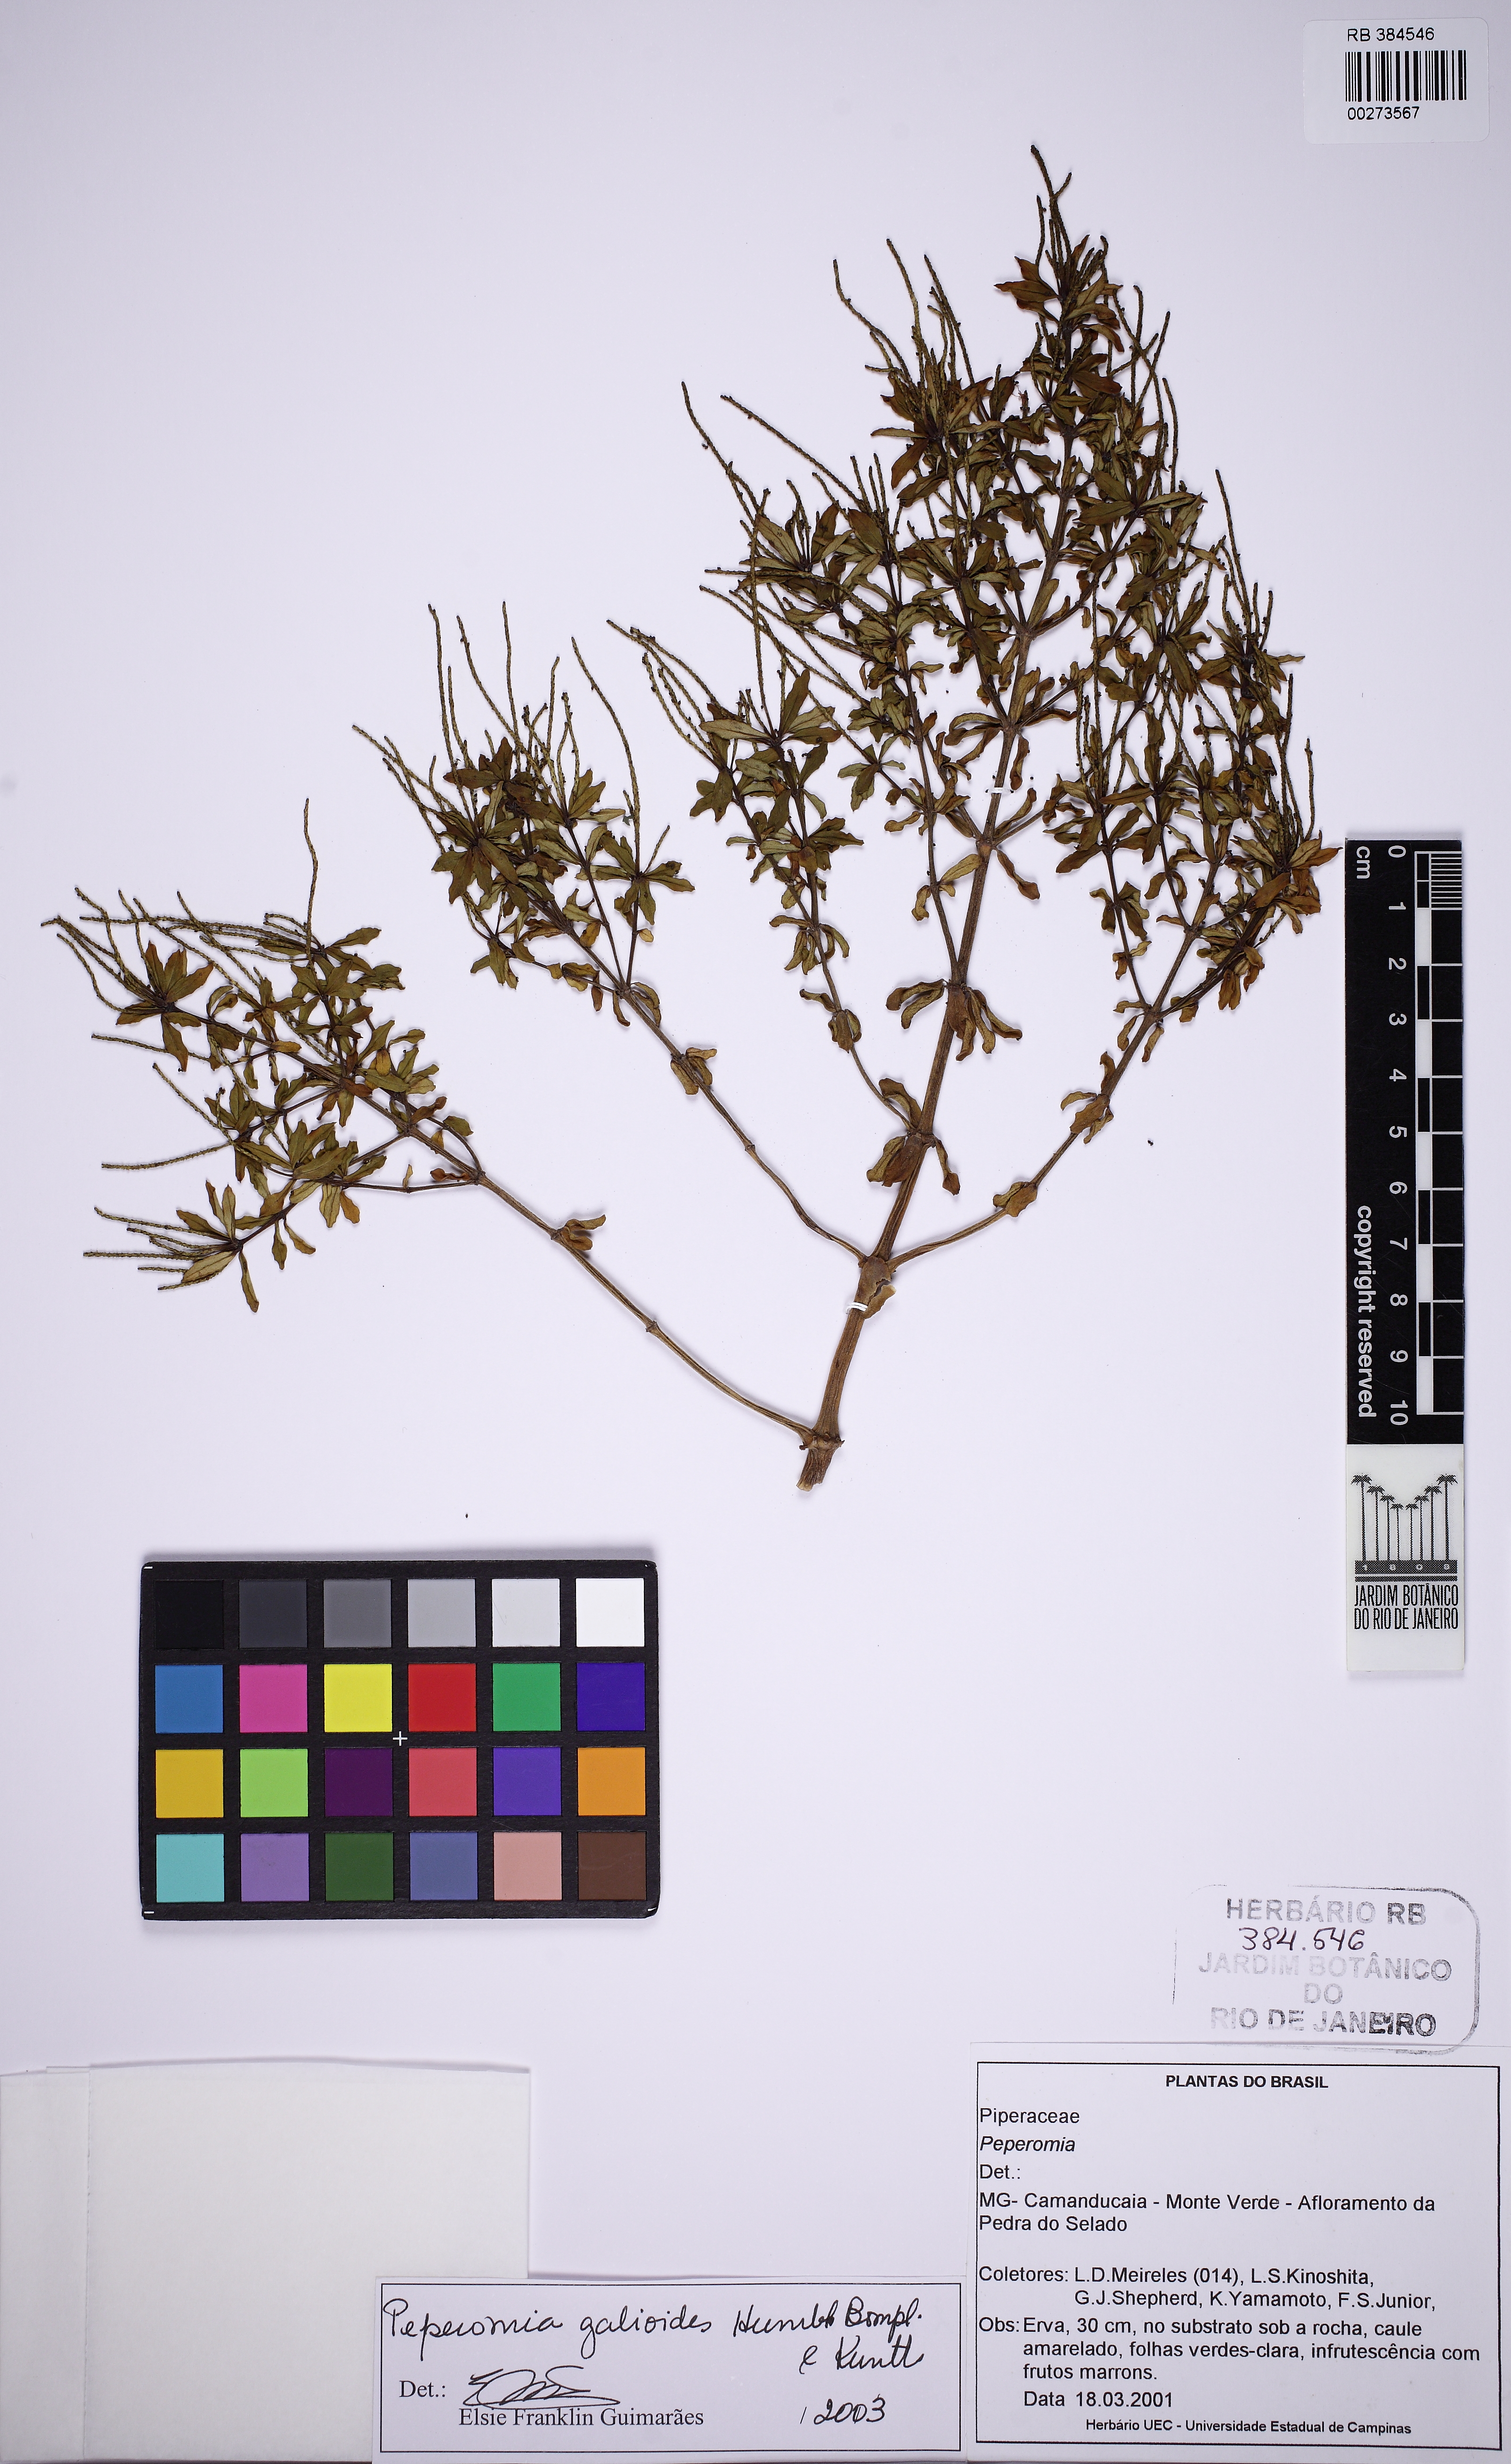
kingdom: Plantae
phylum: Tracheophyta
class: Magnoliopsida
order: Piperales
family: Piperaceae
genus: Peperomia
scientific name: Peperomia galioides
